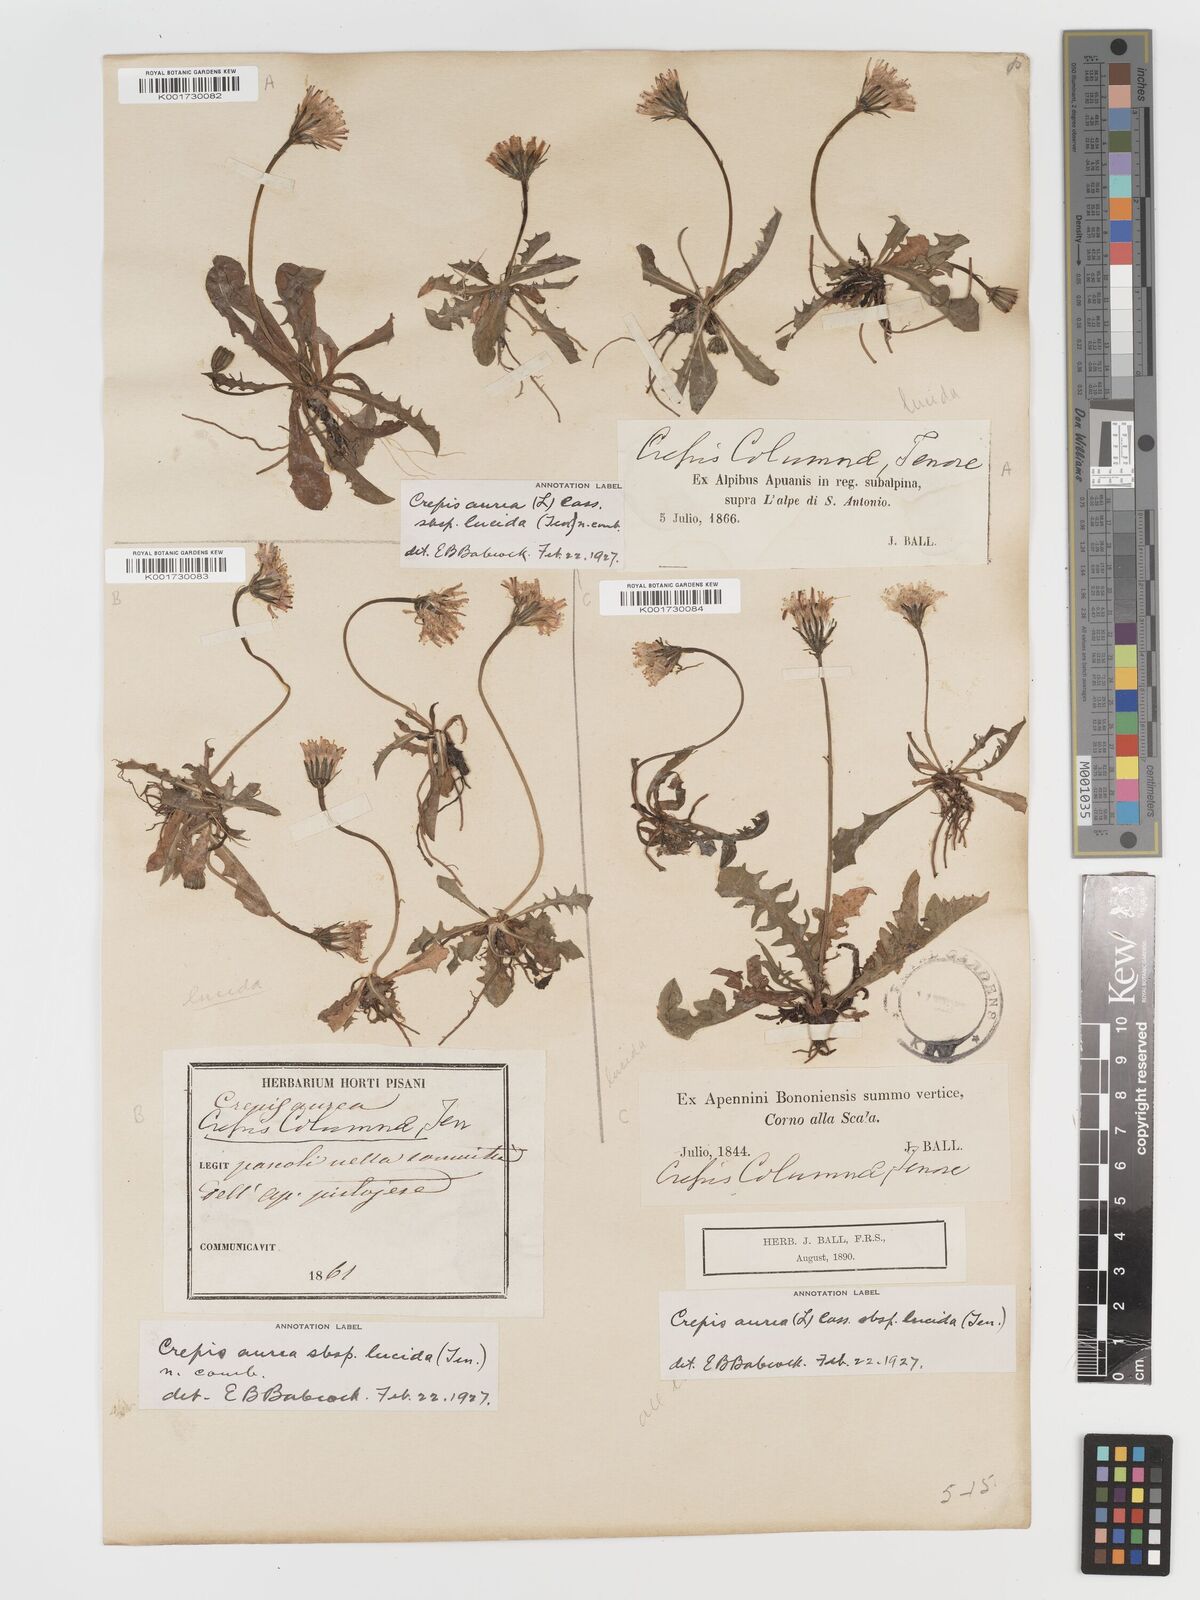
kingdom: Plantae
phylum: Tracheophyta
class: Magnoliopsida
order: Asterales
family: Asteraceae
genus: Crepis
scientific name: Crepis aurea
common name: Golden hawk's-beard
